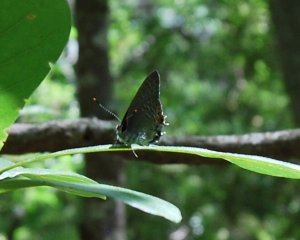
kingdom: Animalia
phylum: Arthropoda
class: Insecta
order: Lepidoptera
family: Lycaenidae
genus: Strymon
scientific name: Strymon kingi
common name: King's Hairstreak
